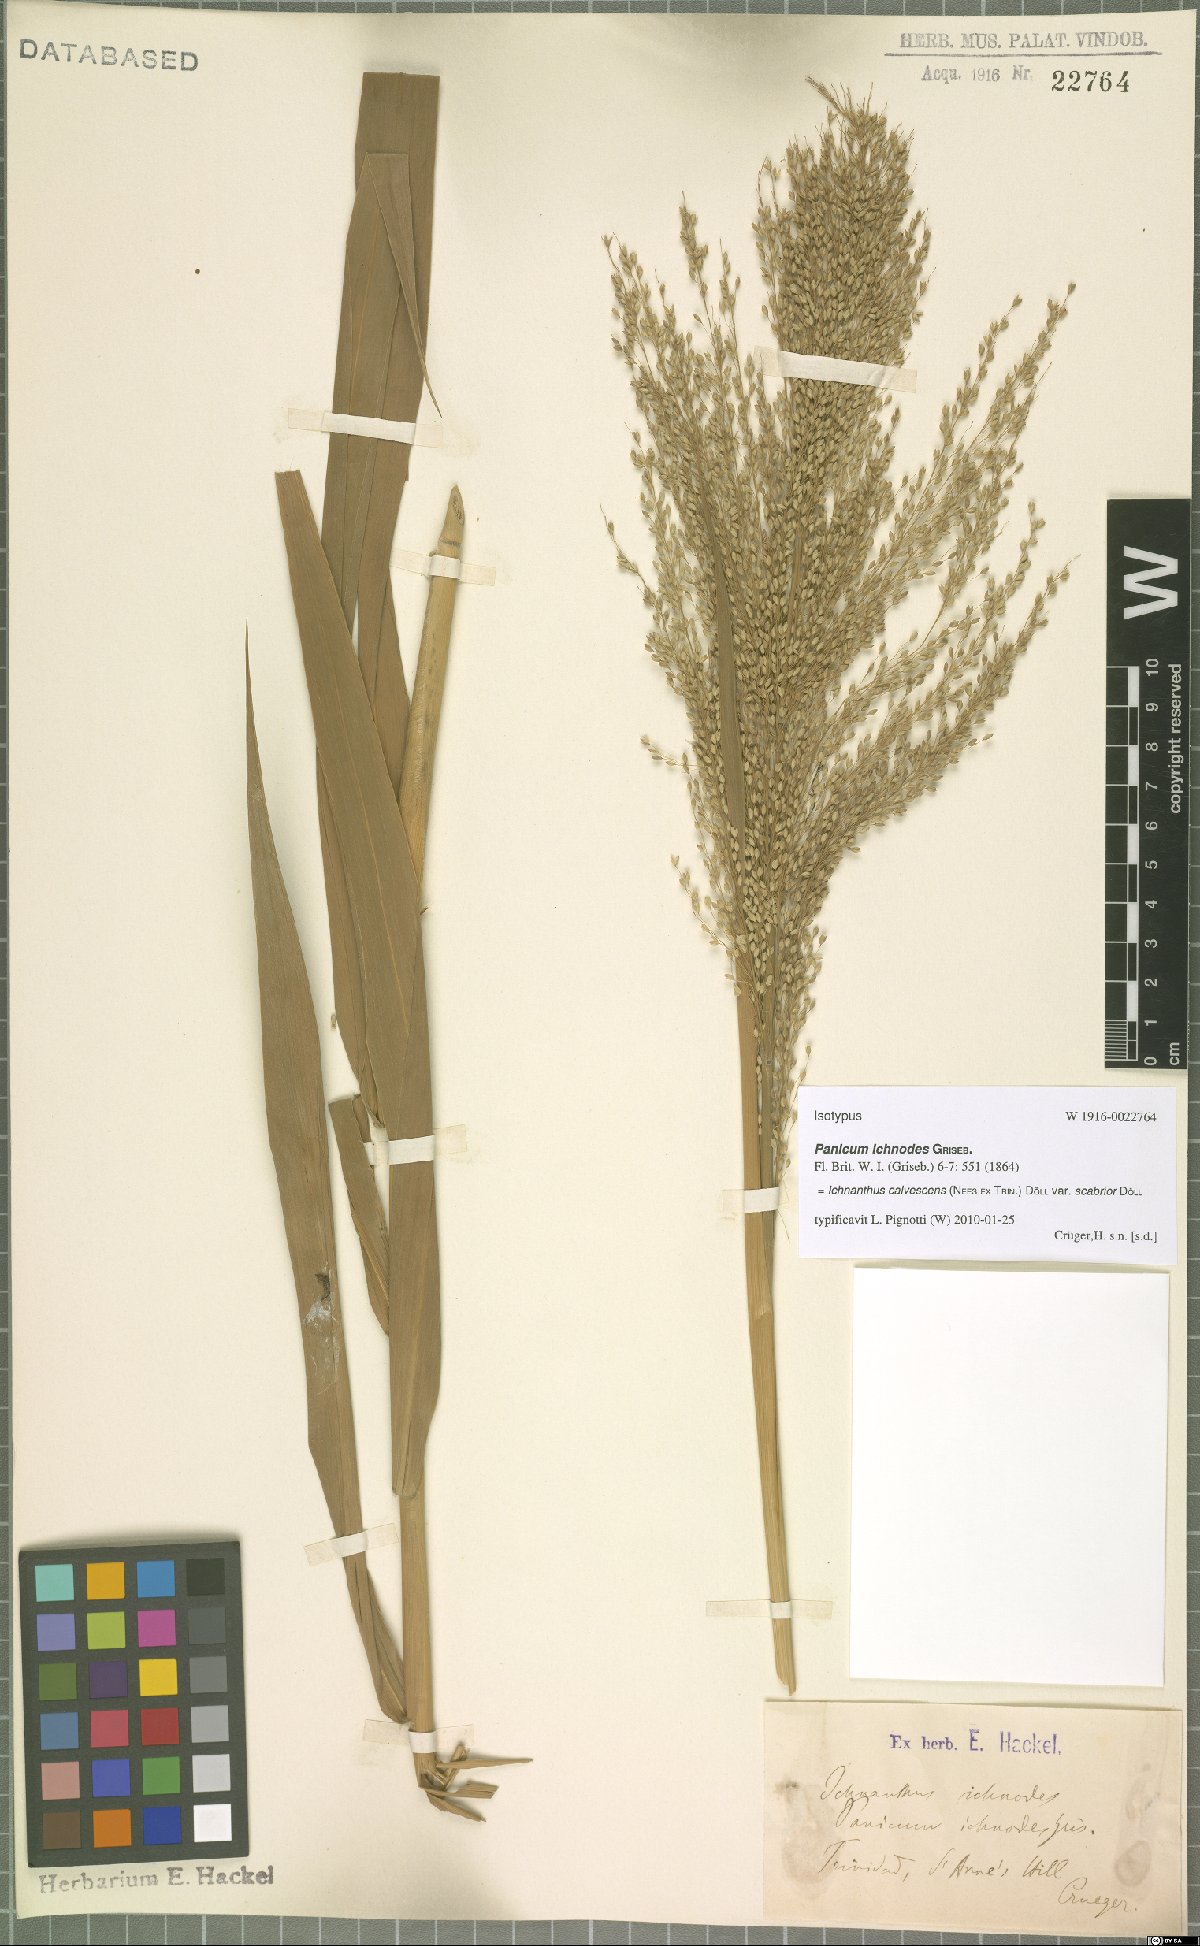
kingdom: Plantae
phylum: Tracheophyta
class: Liliopsida
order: Poales
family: Poaceae
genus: Ichnanthus
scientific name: Ichnanthus calvescens
